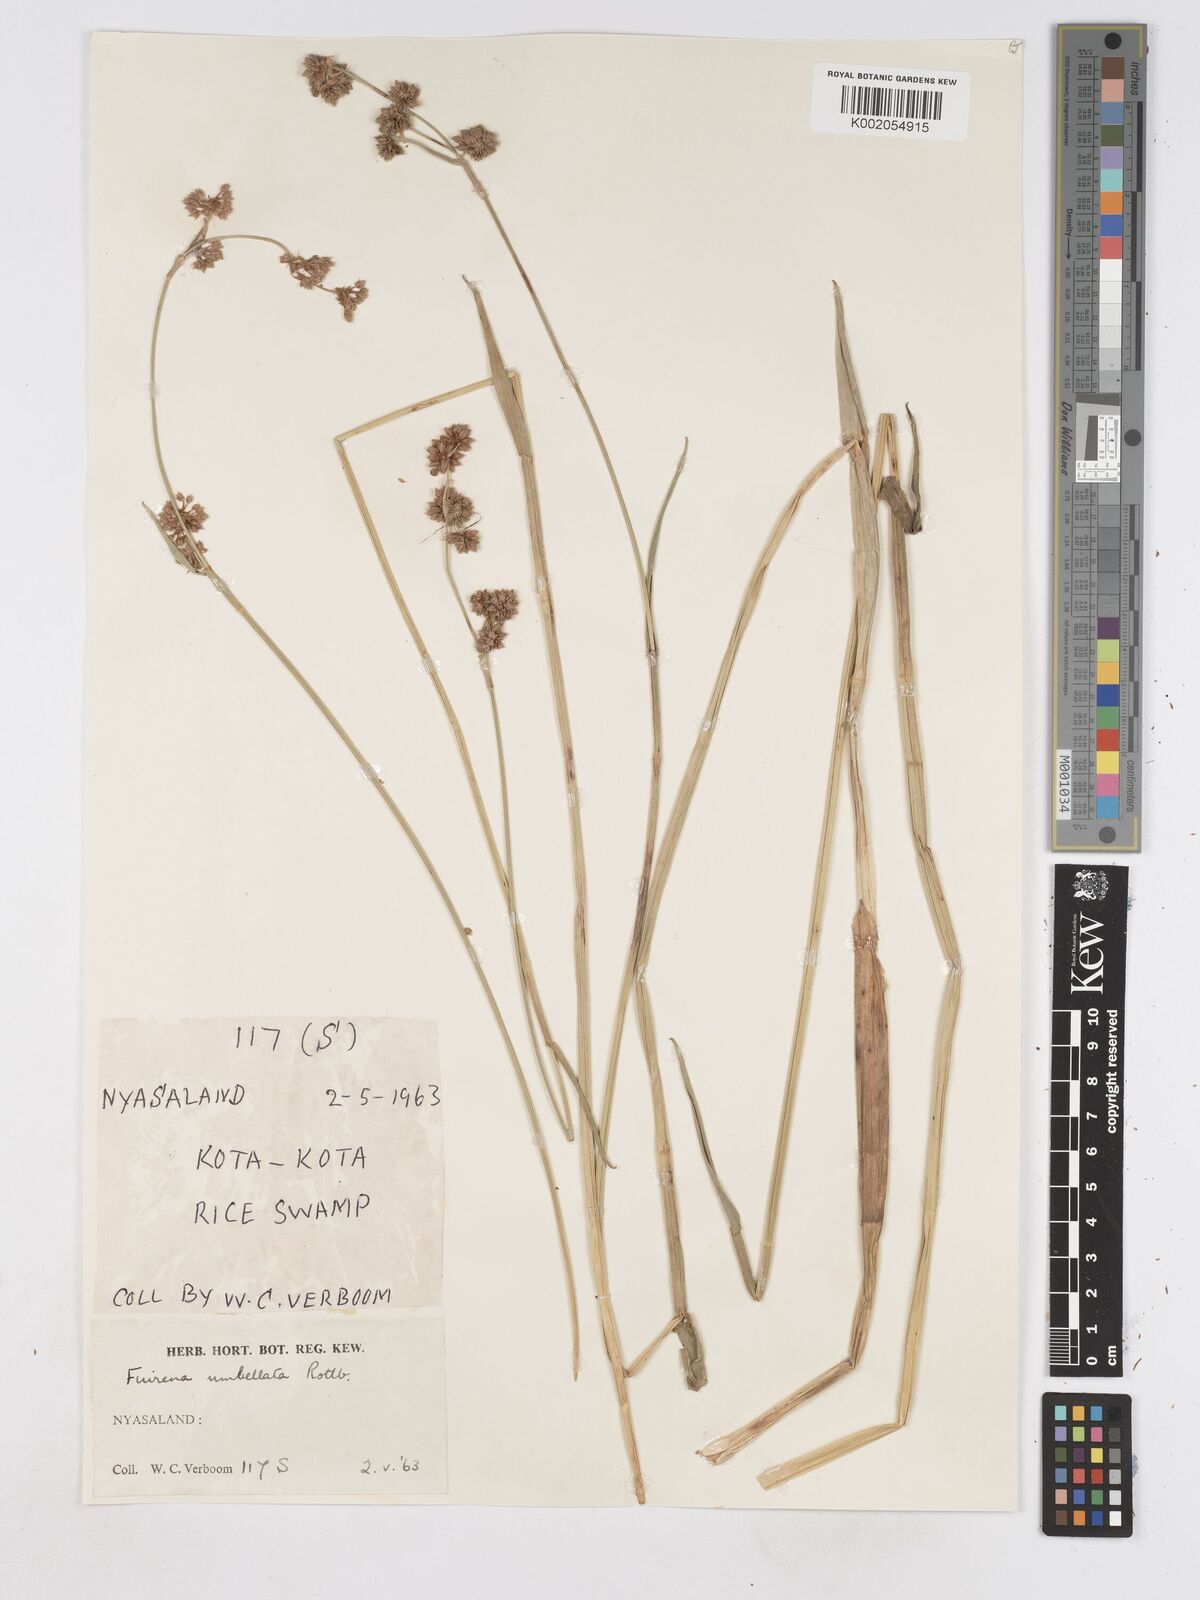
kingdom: Plantae
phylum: Tracheophyta
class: Liliopsida
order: Poales
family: Cyperaceae
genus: Fuirena
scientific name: Fuirena umbellata
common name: Yefen
